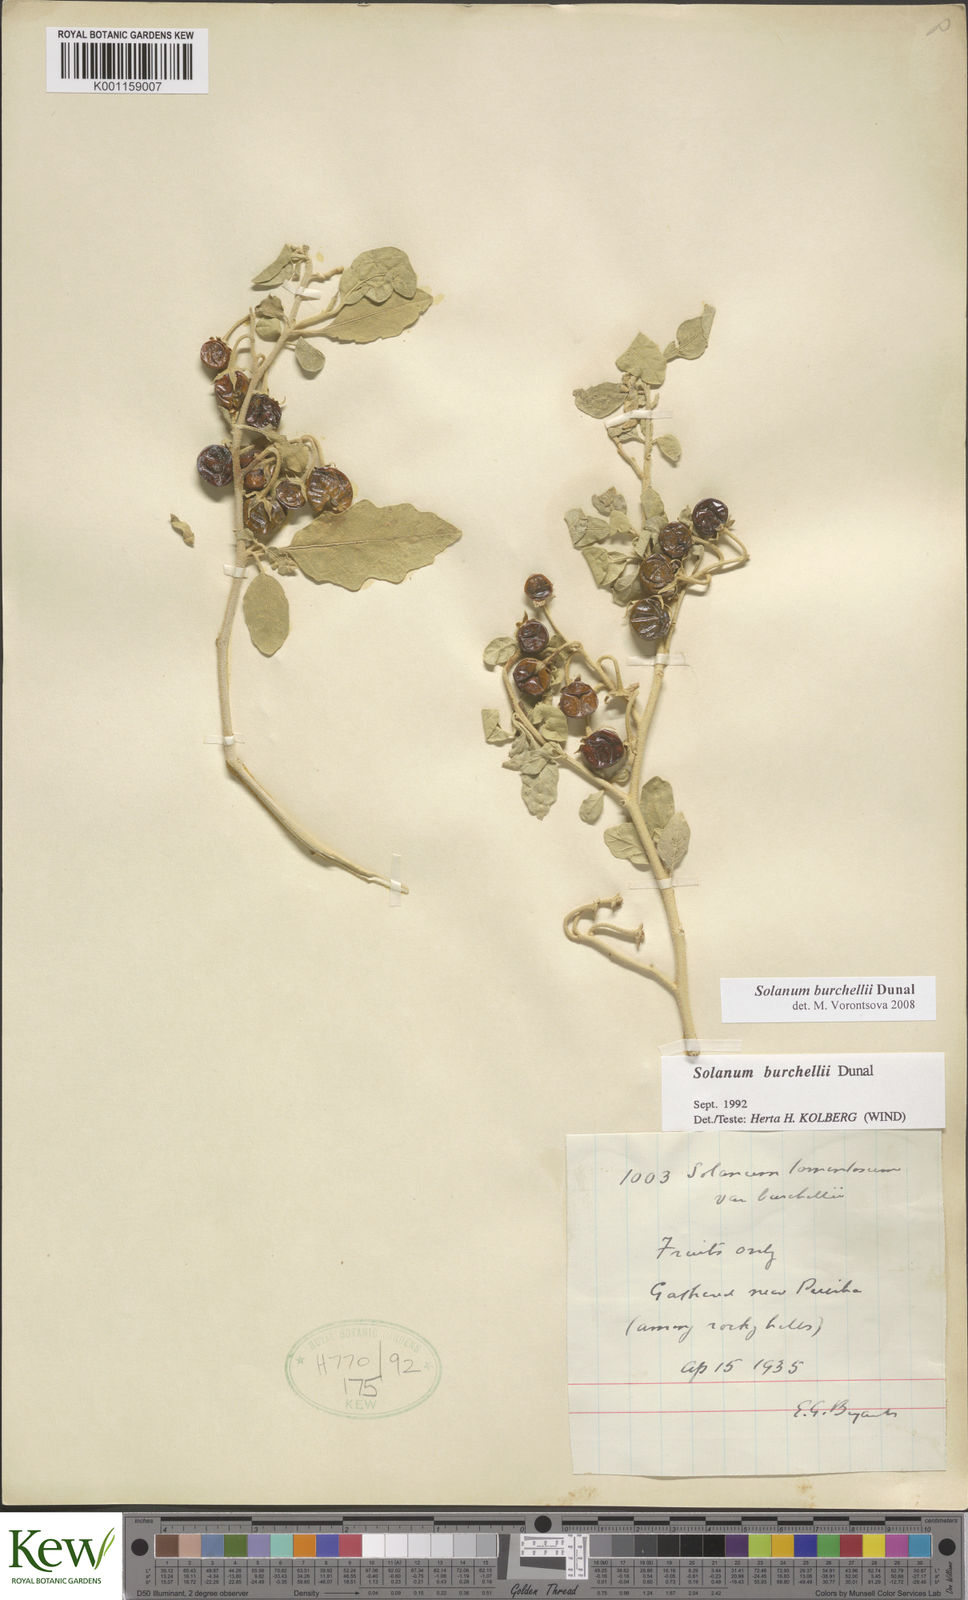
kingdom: Plantae
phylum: Tracheophyta
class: Magnoliopsida
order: Solanales
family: Solanaceae
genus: Solanum
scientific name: Solanum burchellii
